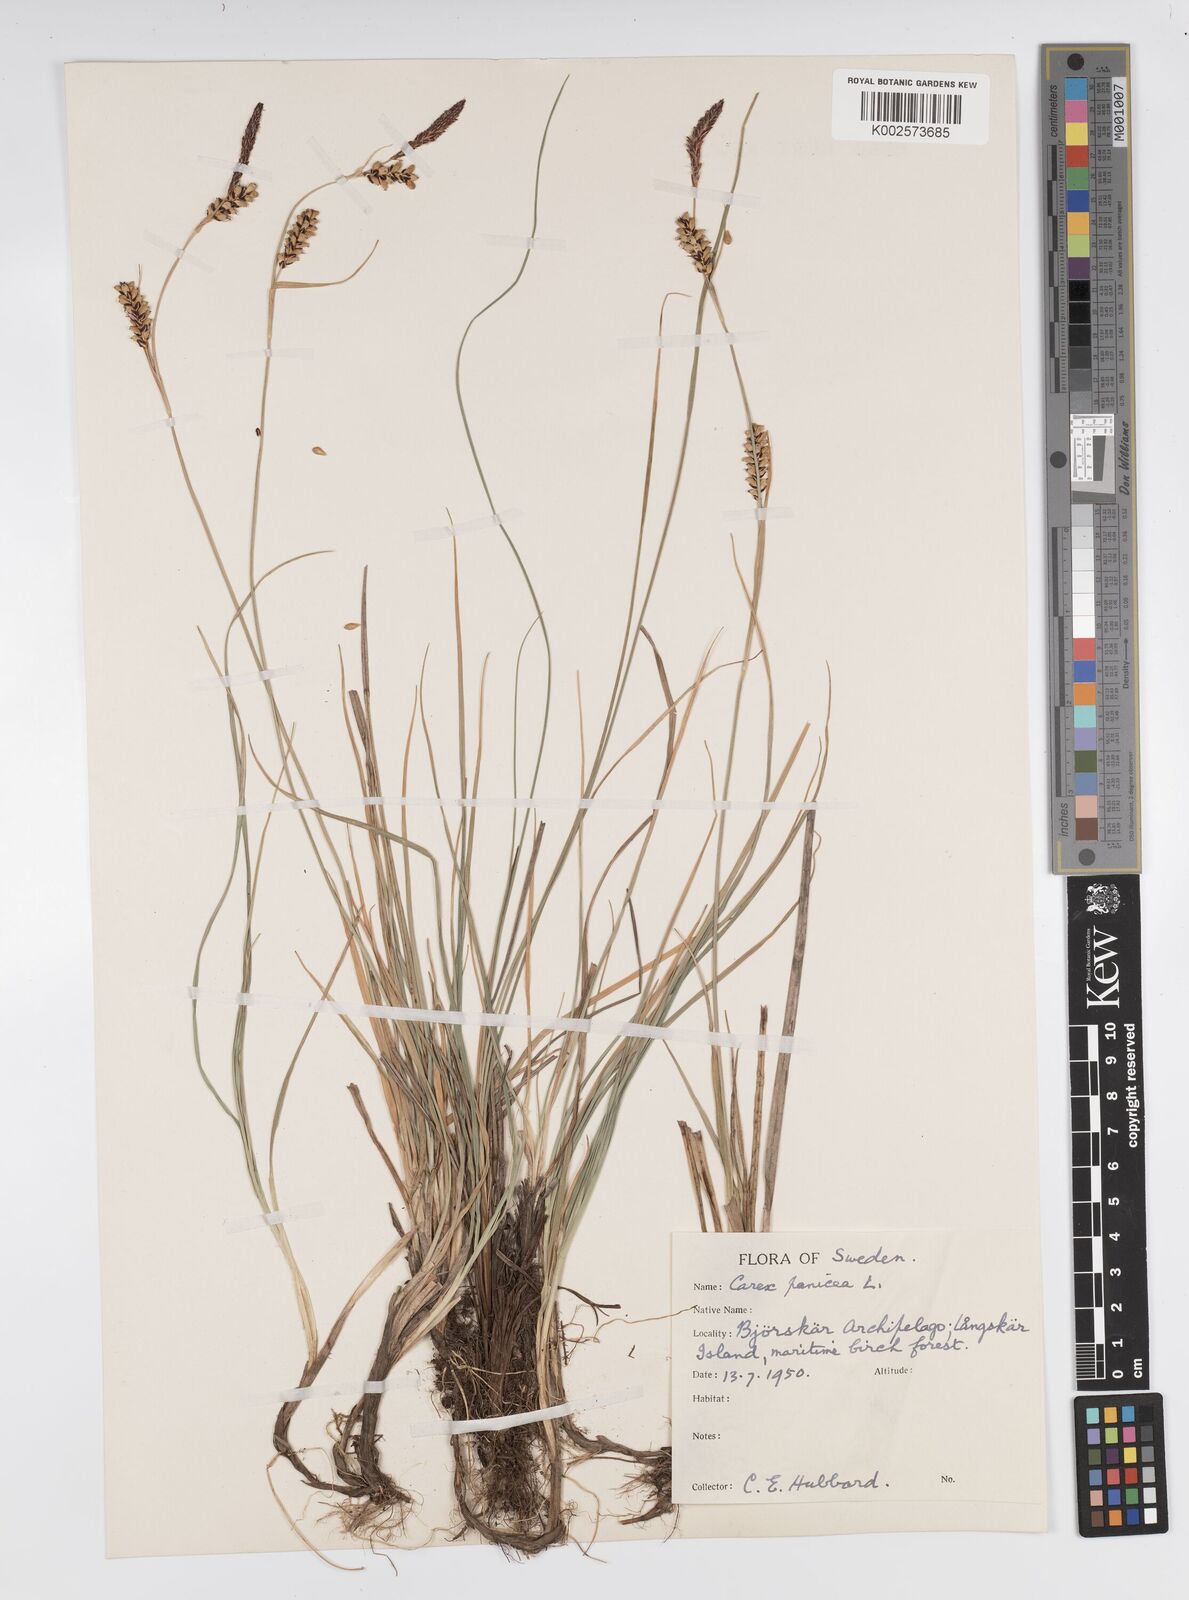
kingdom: Plantae
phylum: Tracheophyta
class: Liliopsida
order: Poales
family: Cyperaceae
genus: Carex
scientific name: Carex panicea
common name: Carnation sedge
